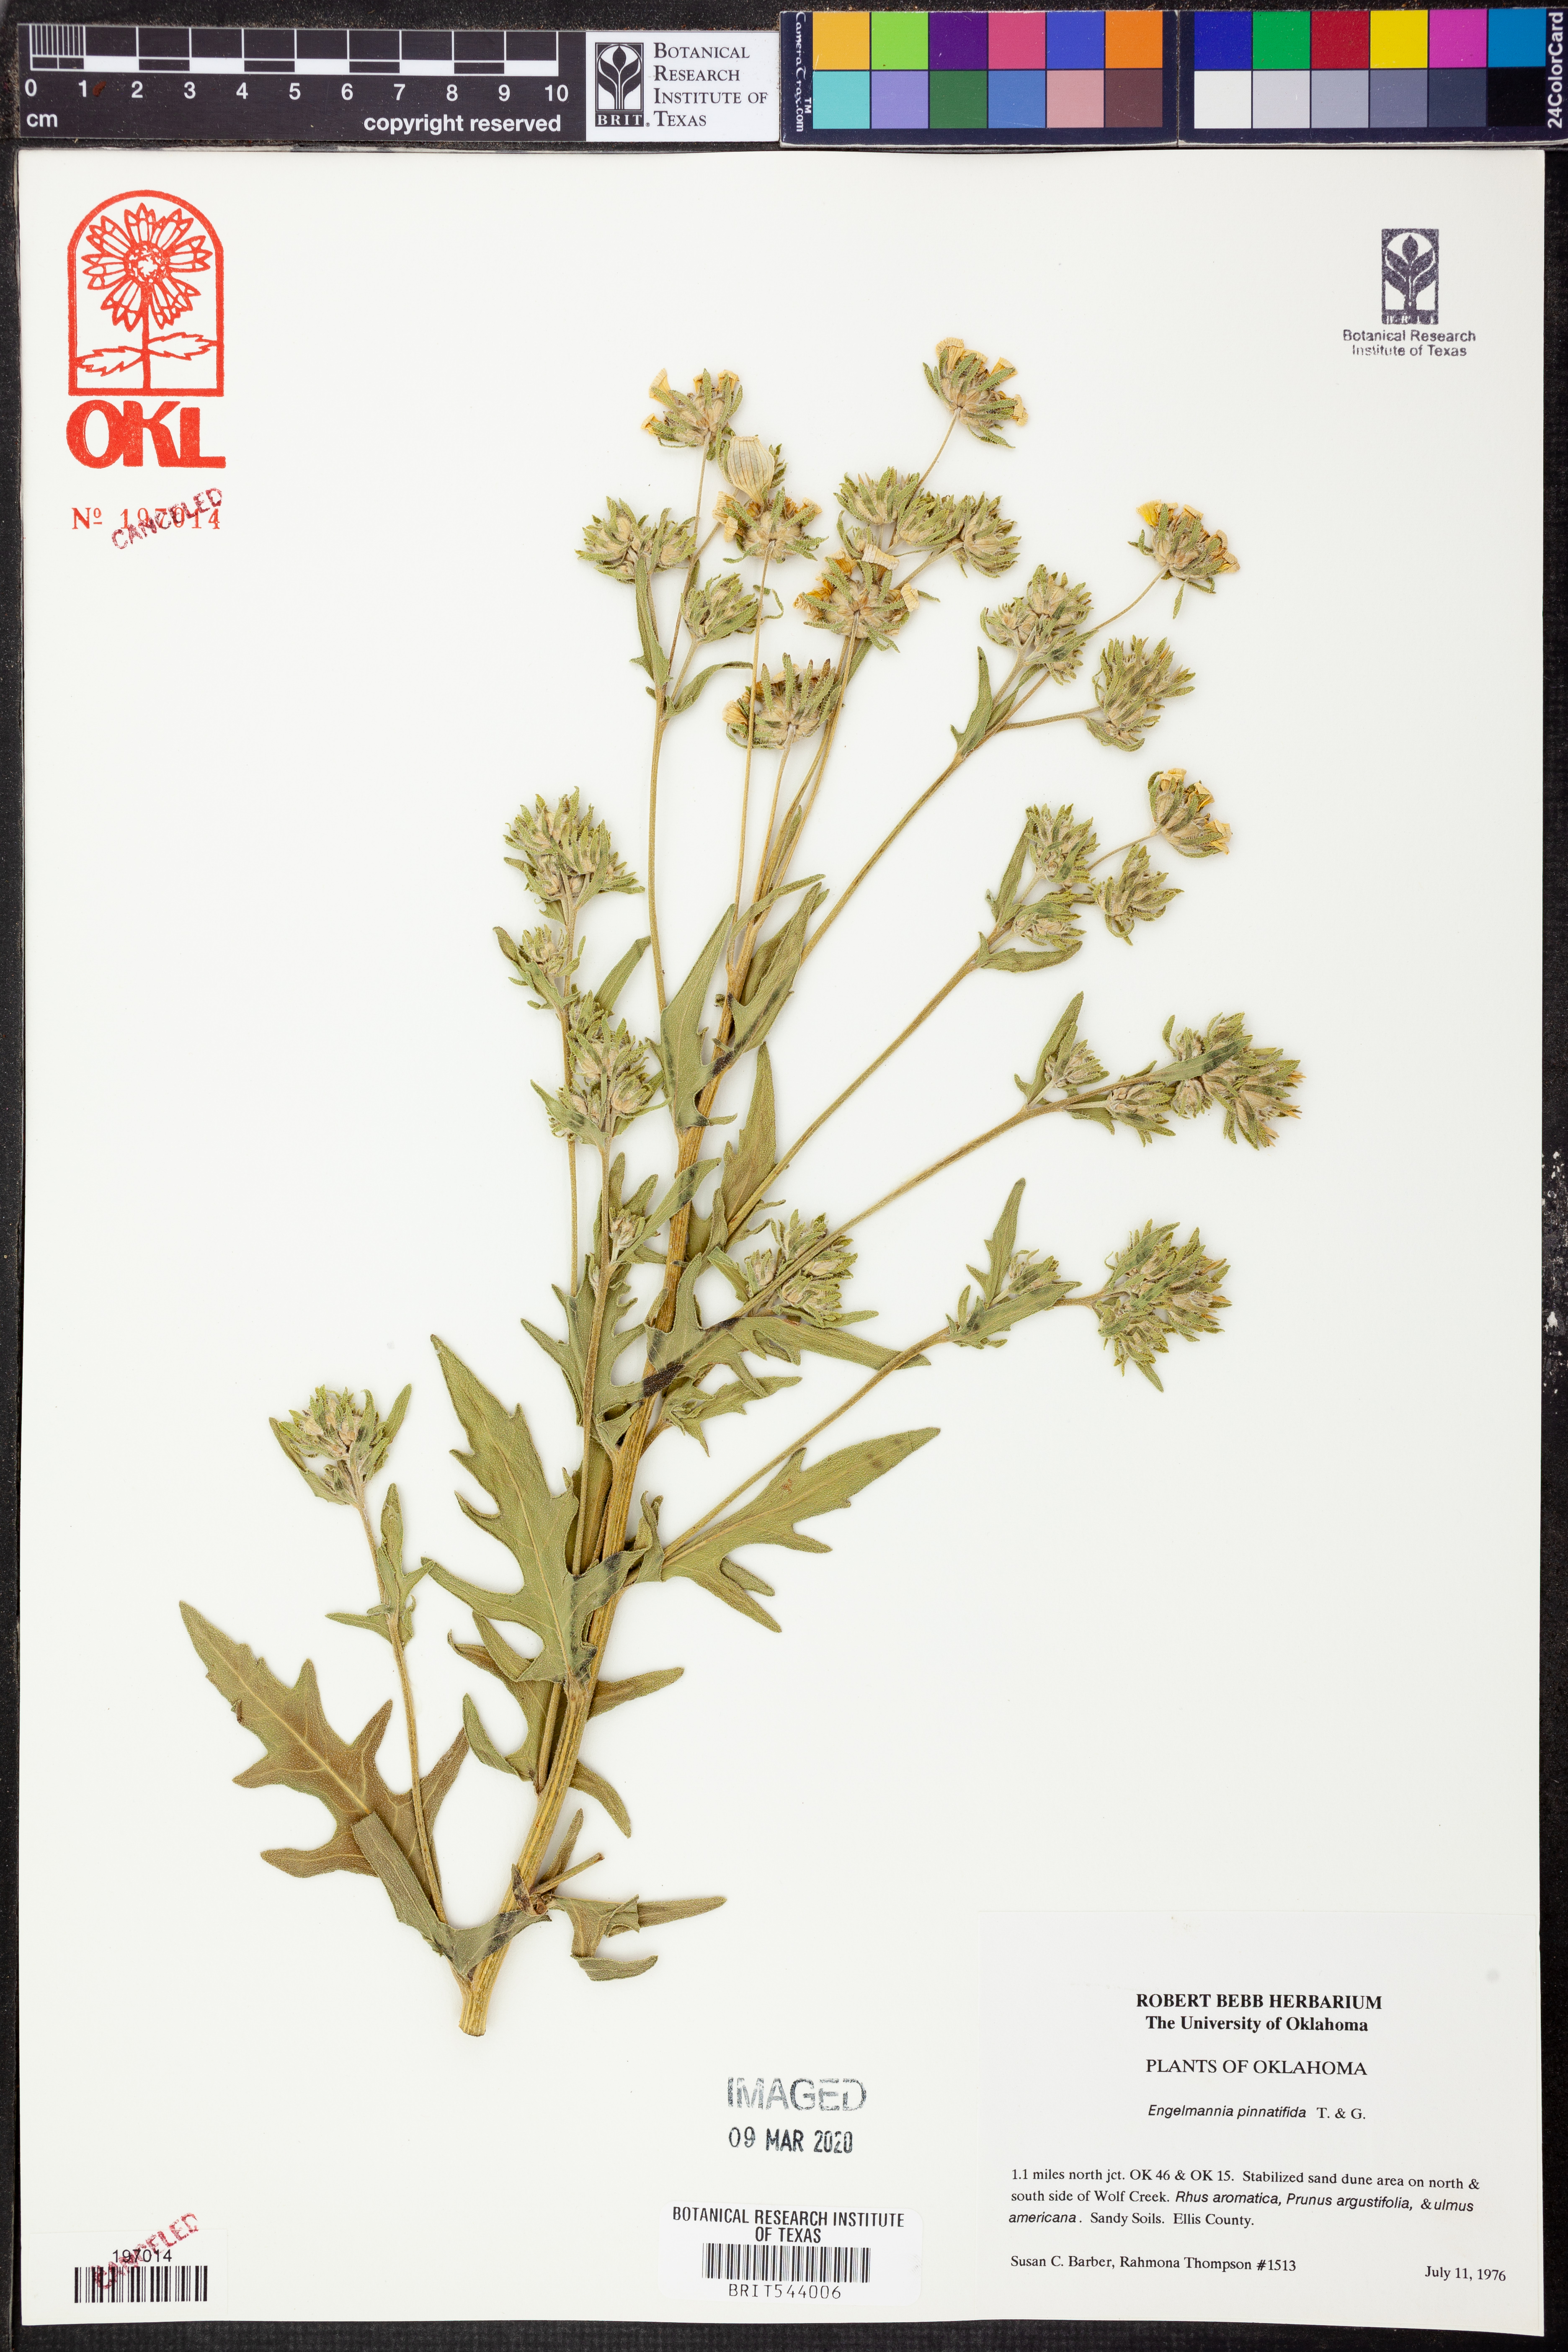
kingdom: Plantae
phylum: Tracheophyta
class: Magnoliopsida
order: Asterales
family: Asteraceae
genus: Engelmannia
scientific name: Engelmannia peristenia
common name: Engelmann's daisy
